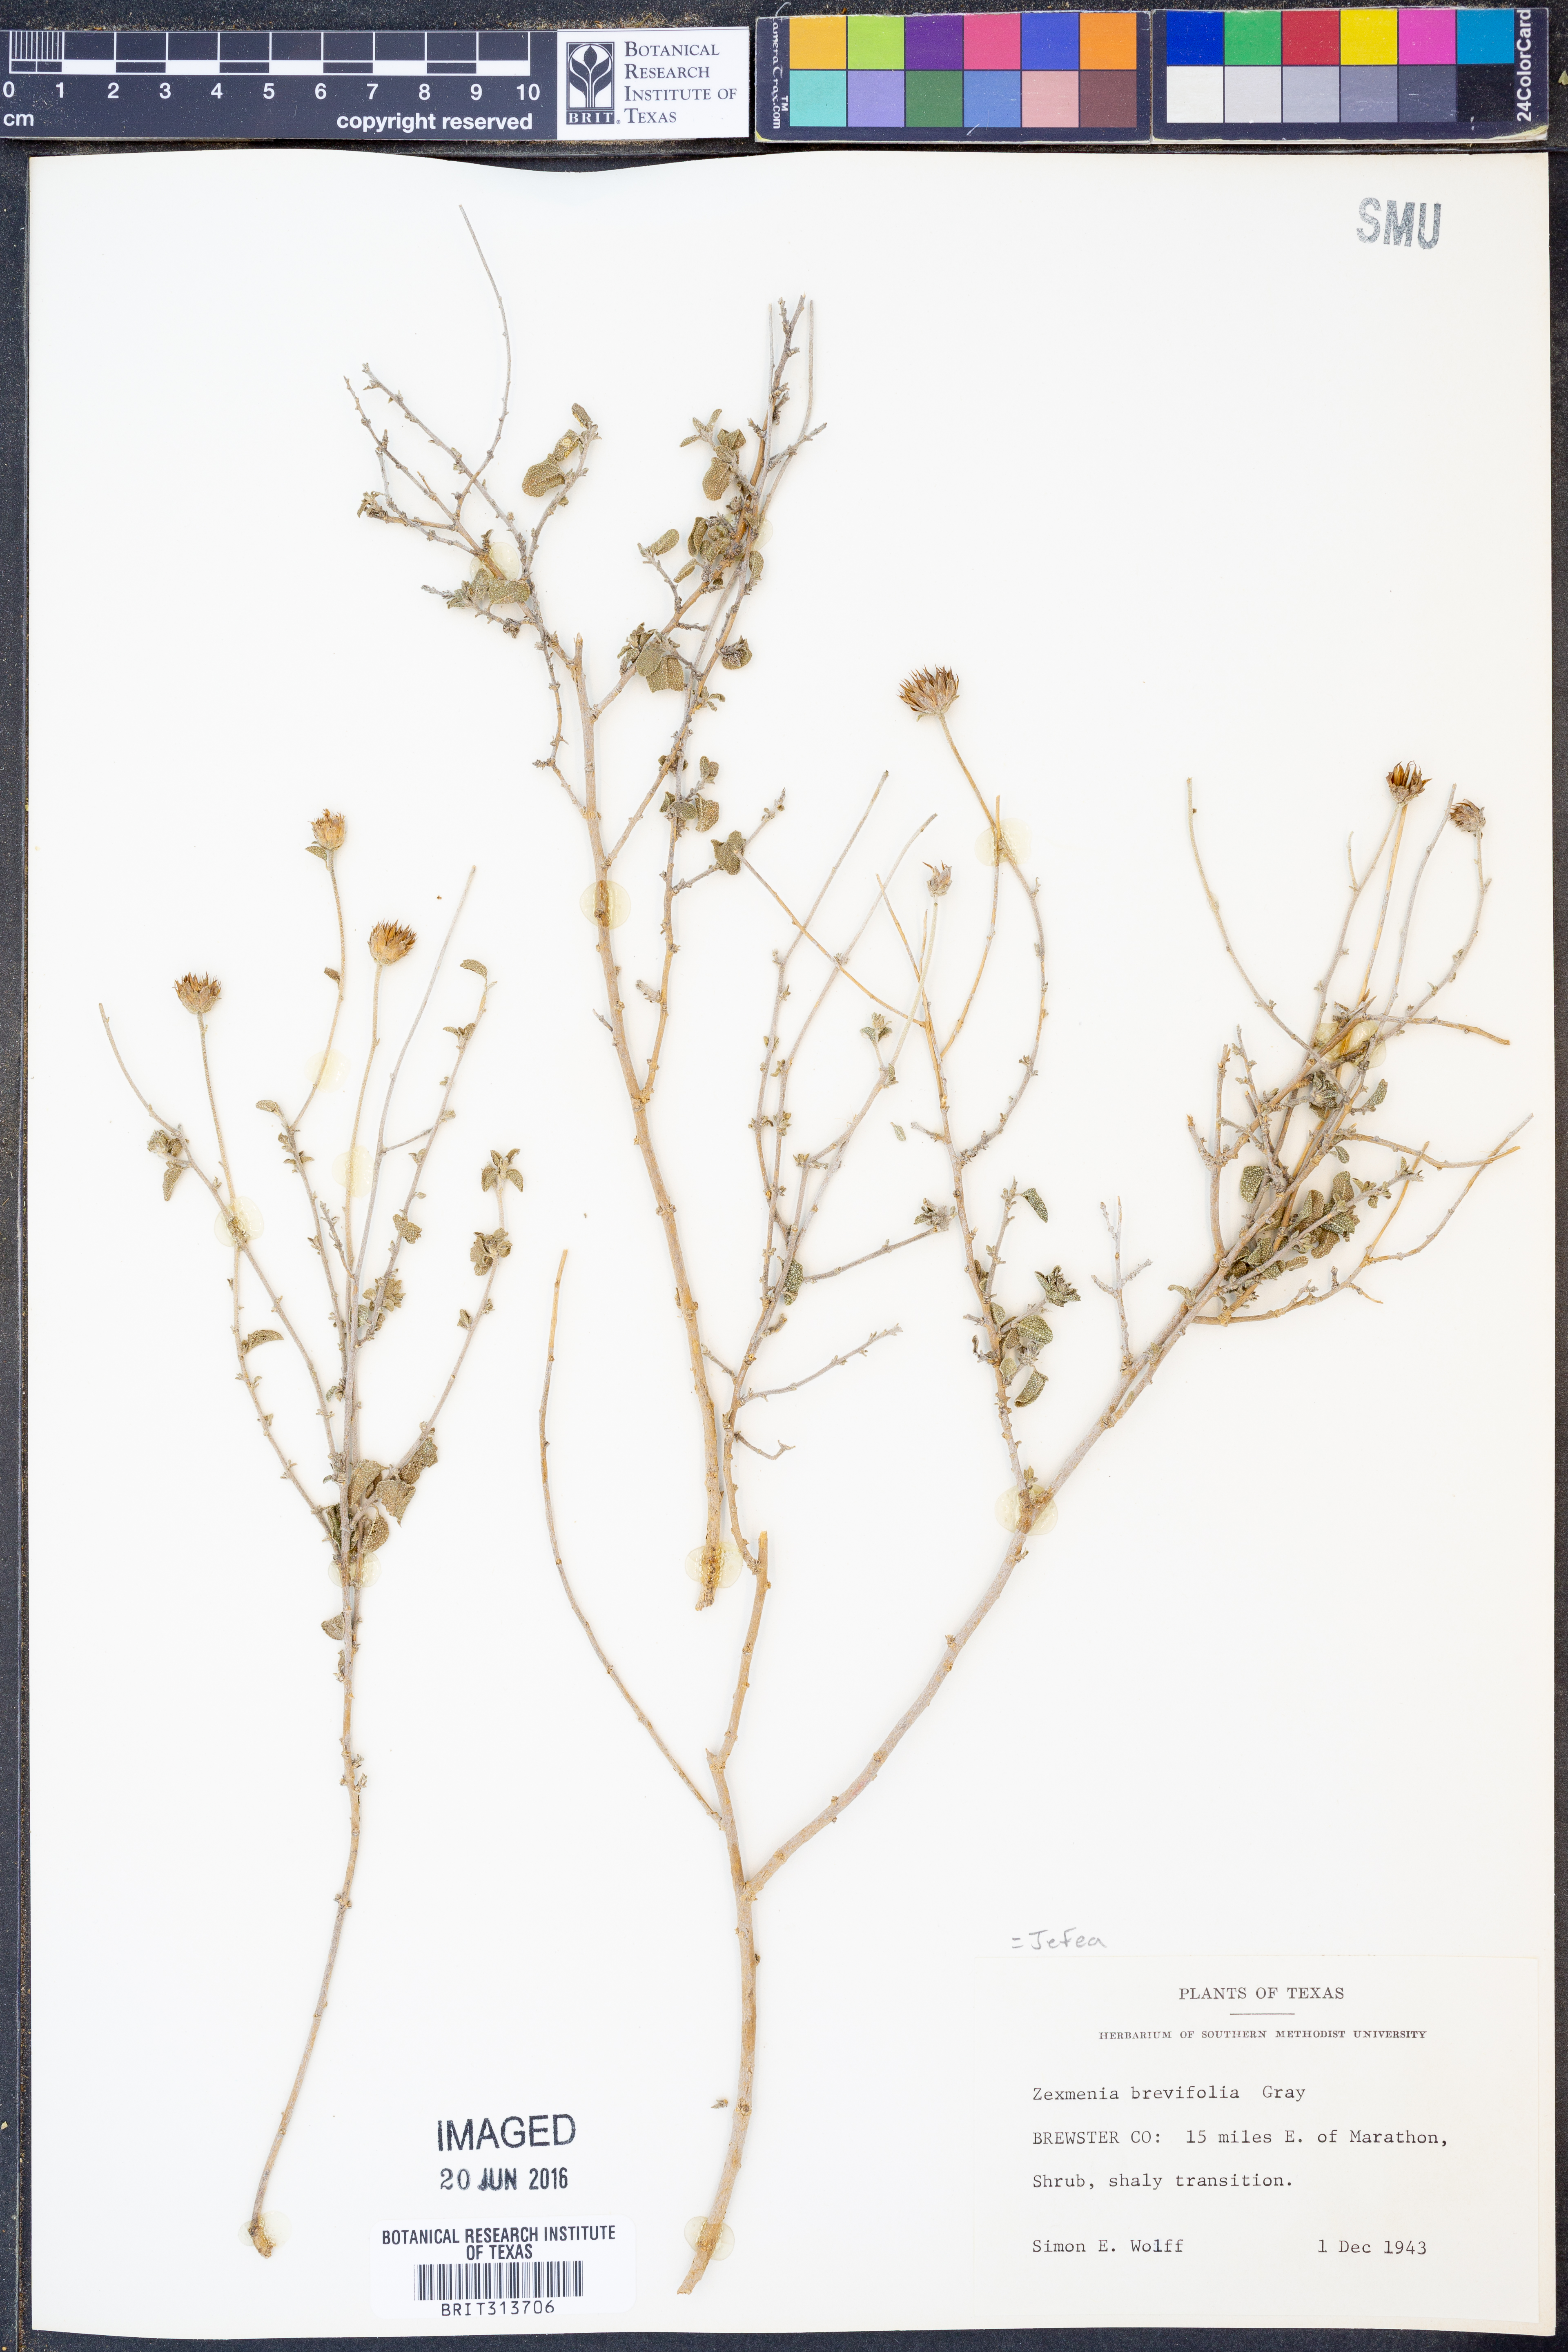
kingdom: Plantae
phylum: Tracheophyta
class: Magnoliopsida
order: Asterales
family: Asteraceae
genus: Jefea
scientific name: Jefea brevifolia
